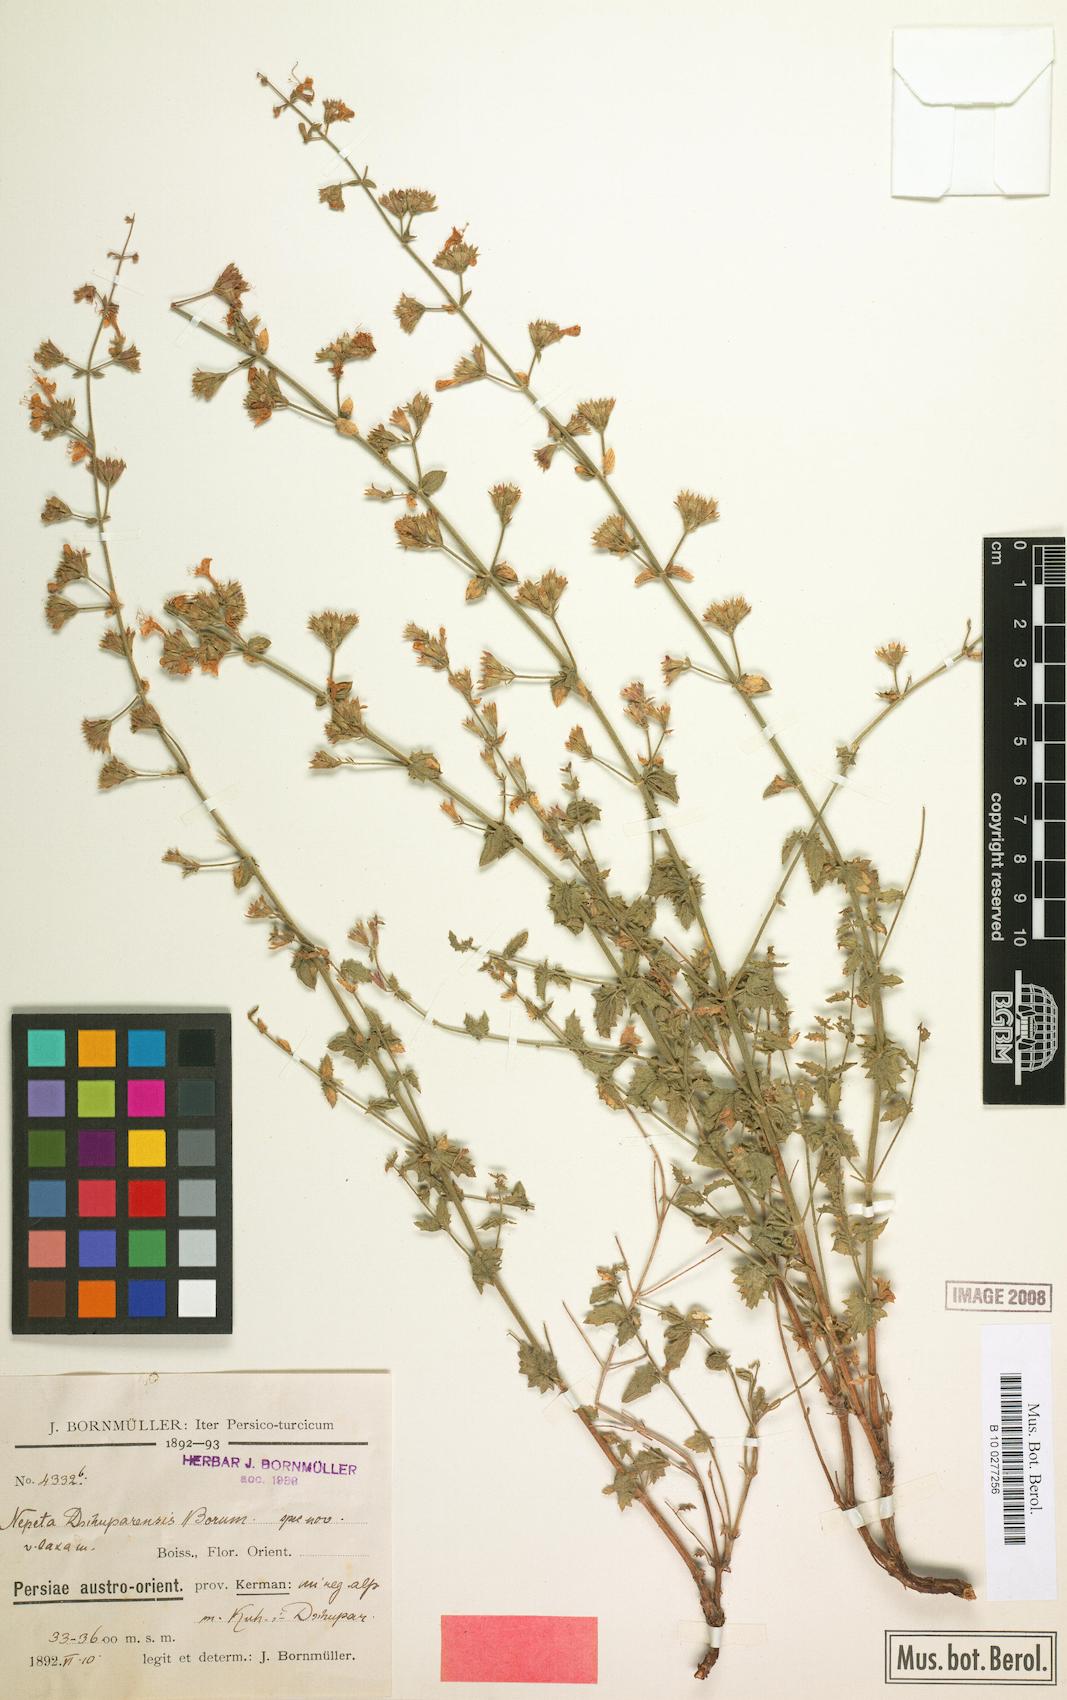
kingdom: Plantae
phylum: Tracheophyta
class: Magnoliopsida
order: Lamiales
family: Lamiaceae
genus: Nepeta
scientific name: Nepeta dschuparensis
